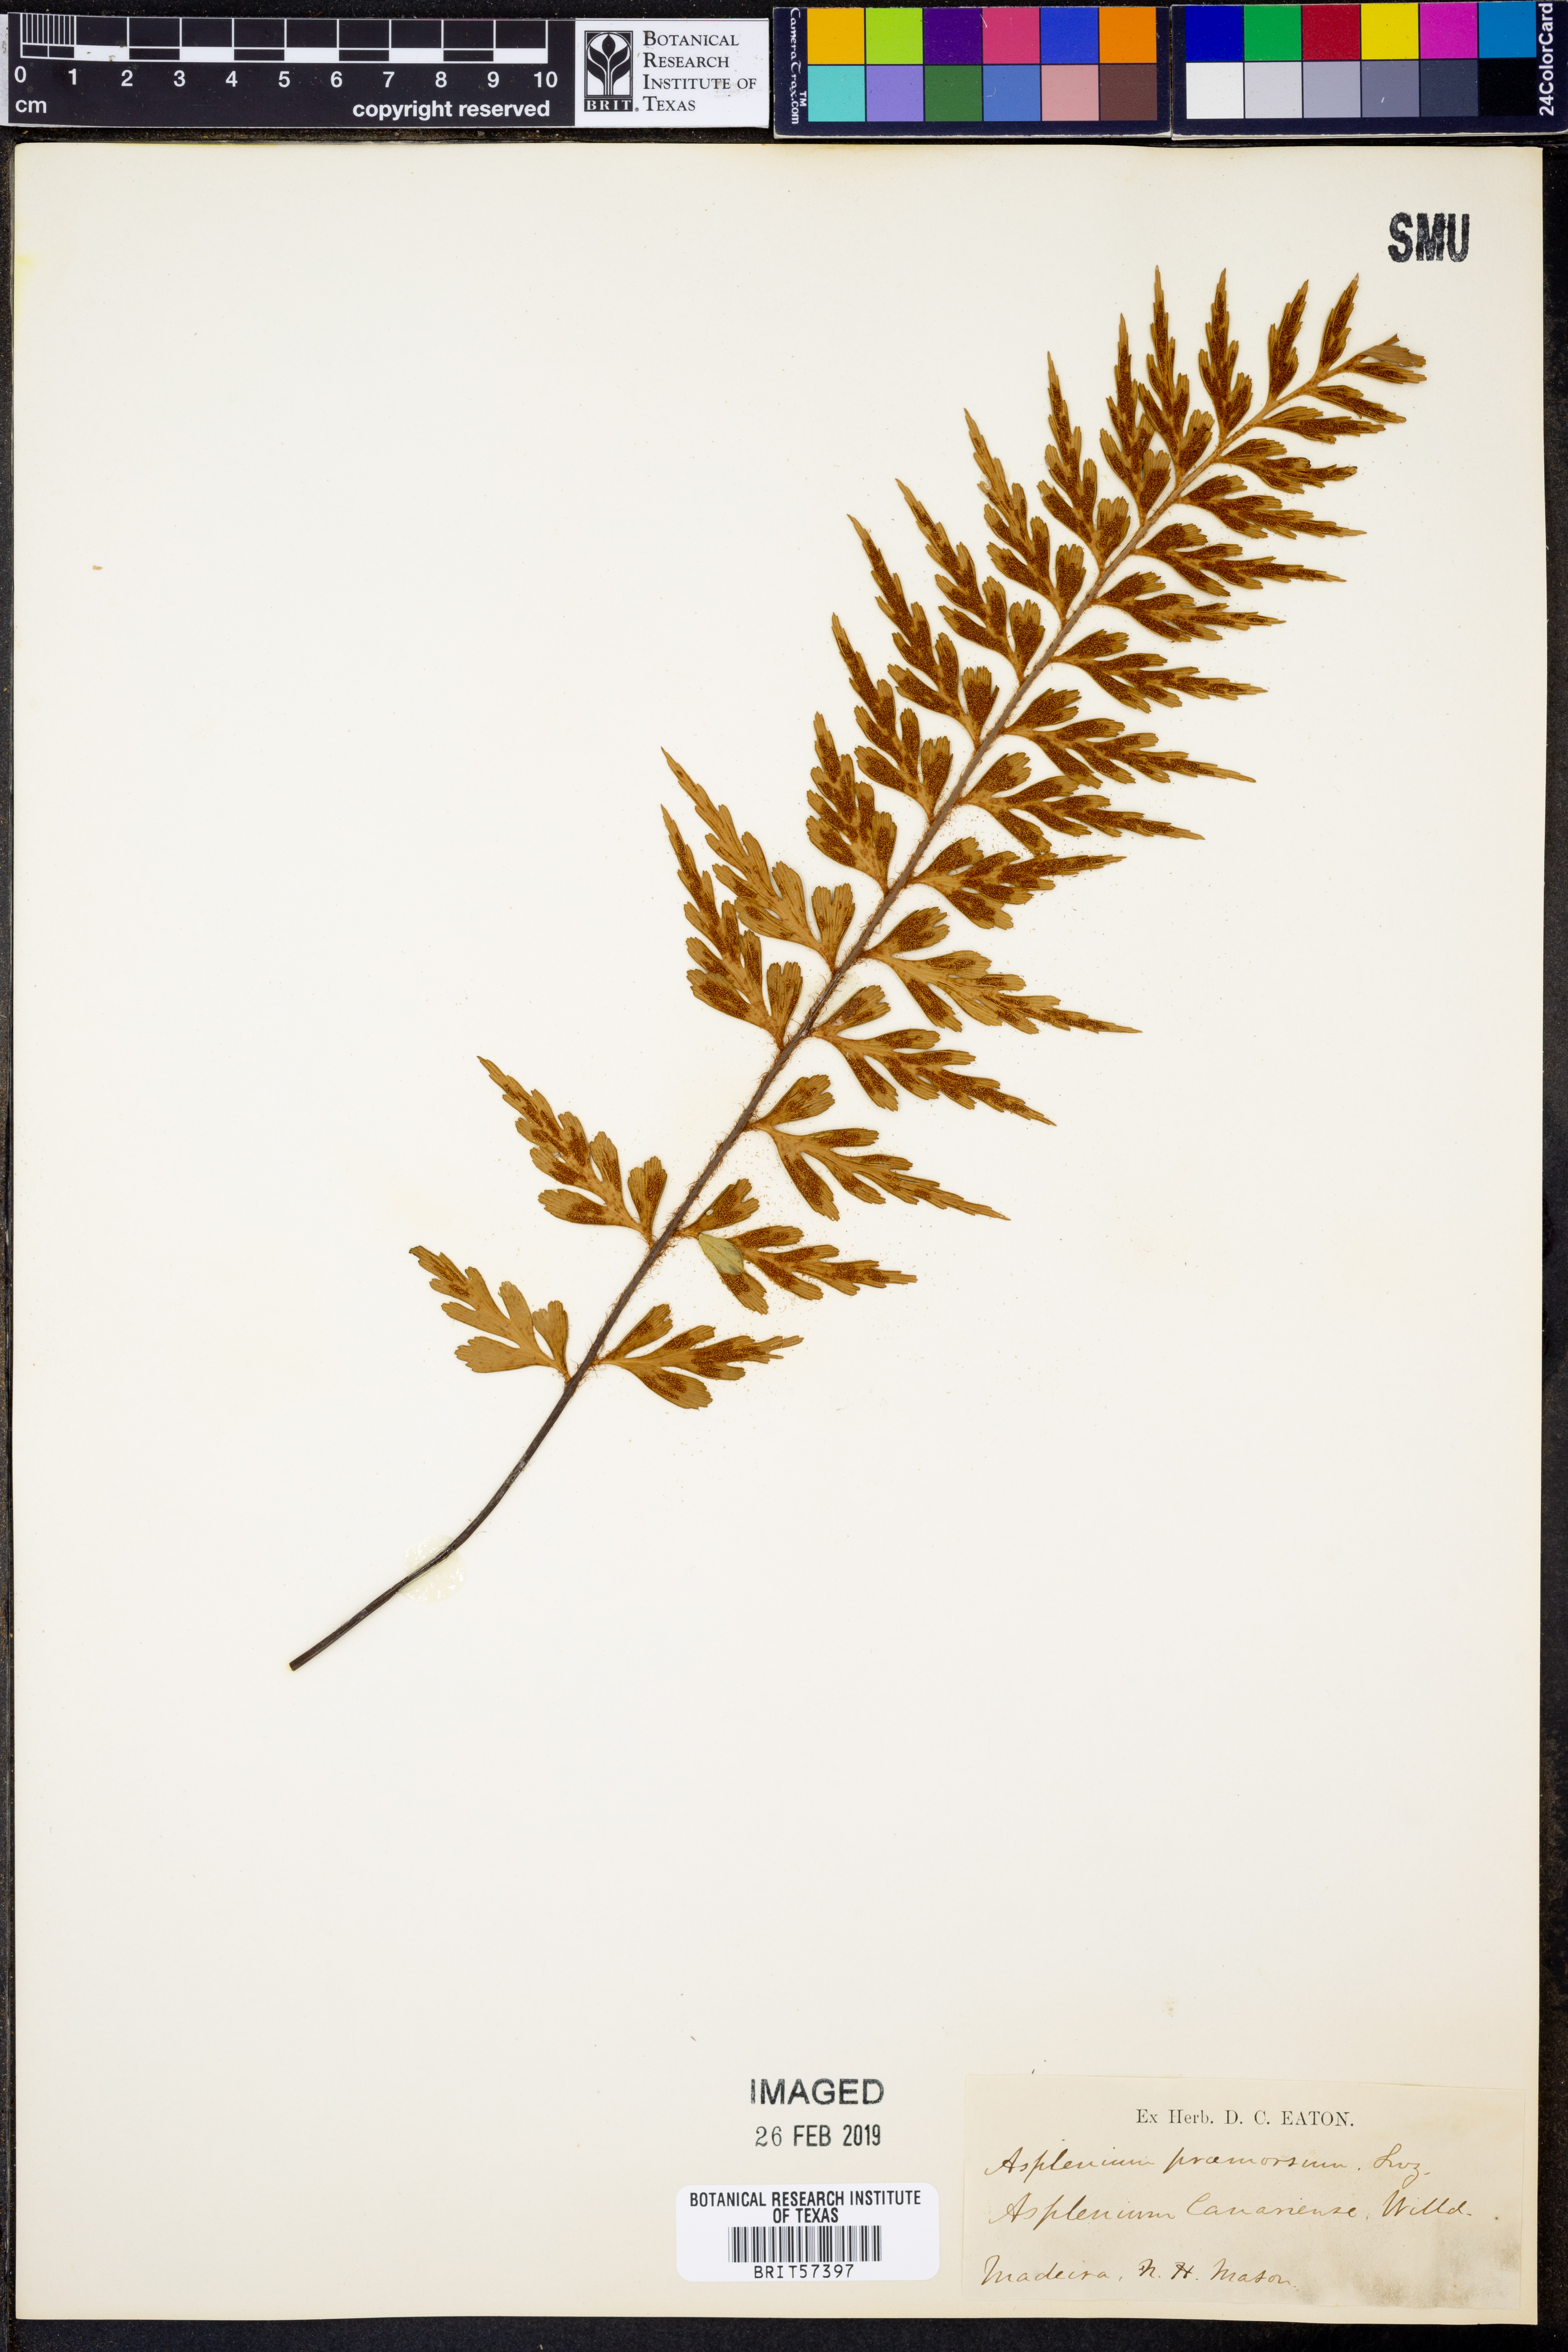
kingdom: Plantae
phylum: Tracheophyta
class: Polypodiopsida
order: Polypodiales
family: Aspleniaceae
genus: Asplenium
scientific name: Asplenium praemorsum
